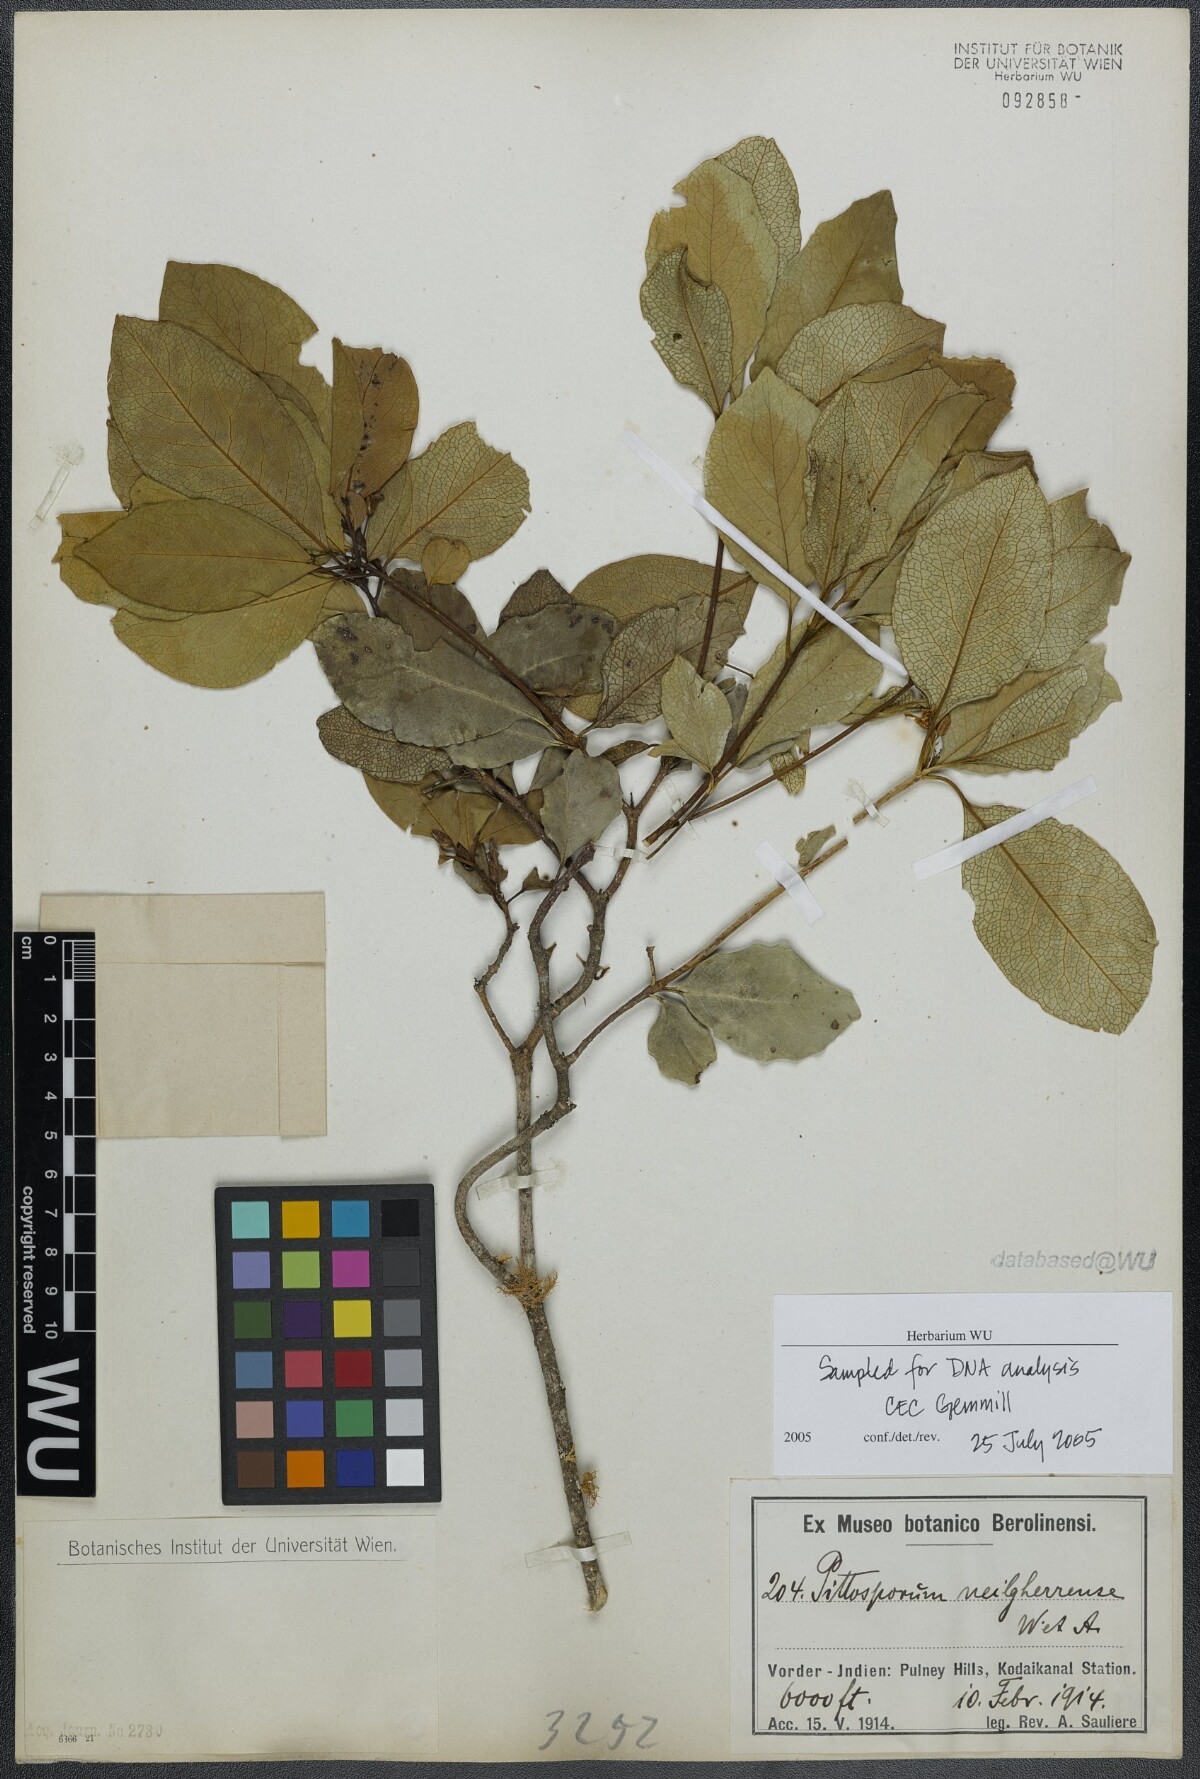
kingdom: Plantae
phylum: Tracheophyta
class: Magnoliopsida
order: Apiales
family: Pittosporaceae
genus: Pittosporum
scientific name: Pittosporum neelgherrense
